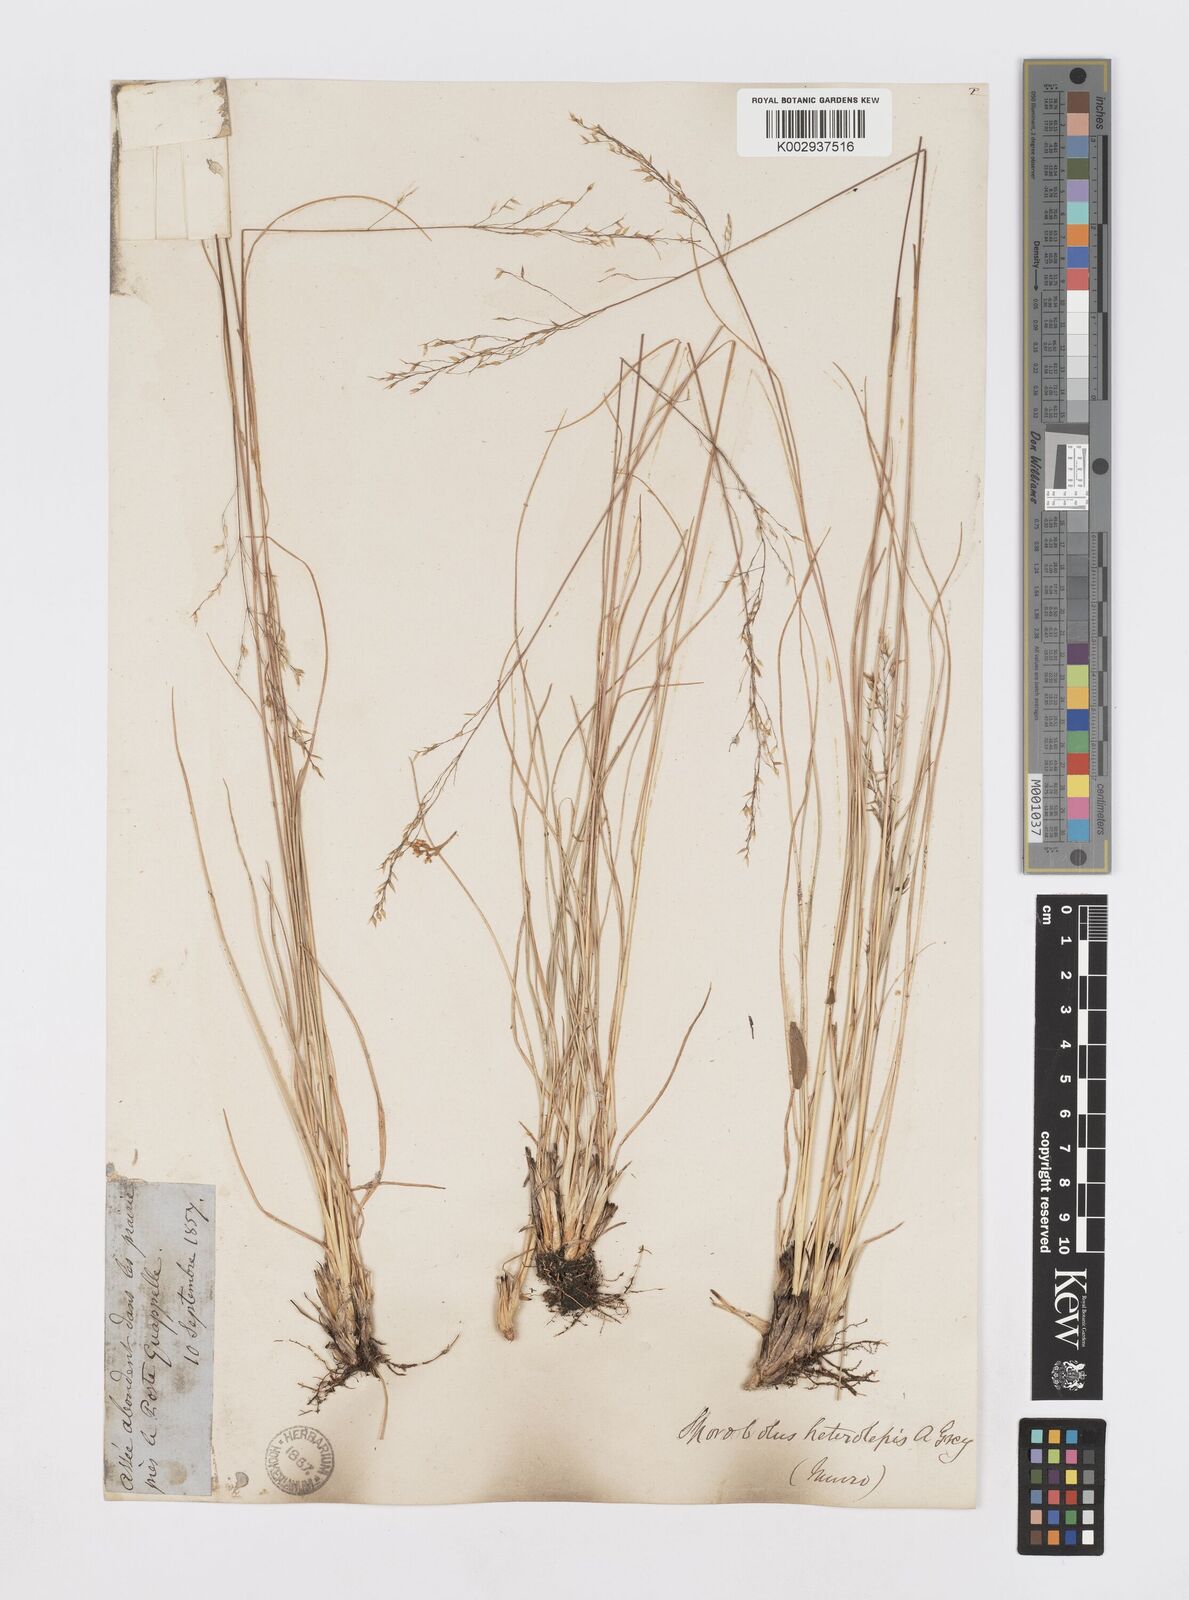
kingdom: Plantae
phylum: Tracheophyta
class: Liliopsida
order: Poales
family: Poaceae
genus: Sporobolus
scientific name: Sporobolus heterolepis
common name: Prairie dropseed
